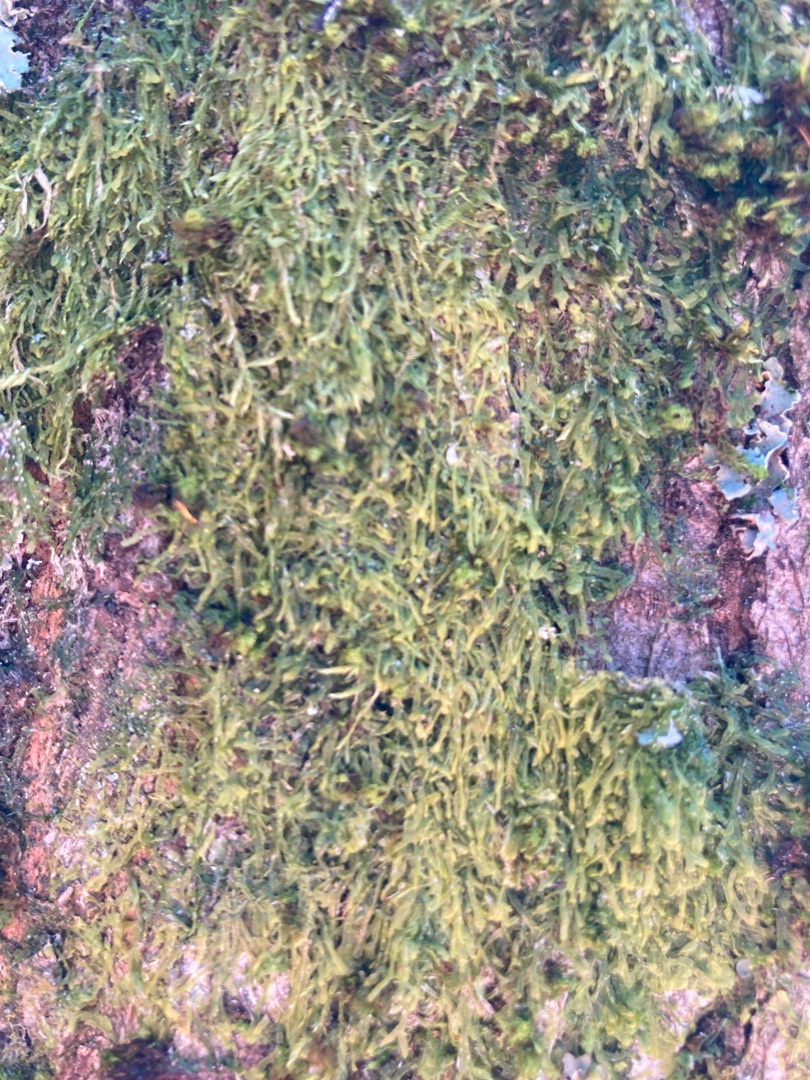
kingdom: Plantae
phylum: Marchantiophyta
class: Jungermanniopsida
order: Metzgeriales
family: Metzgeriaceae
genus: Metzgeria
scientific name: Metzgeria furcata
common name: Almindelig gaffelløv
